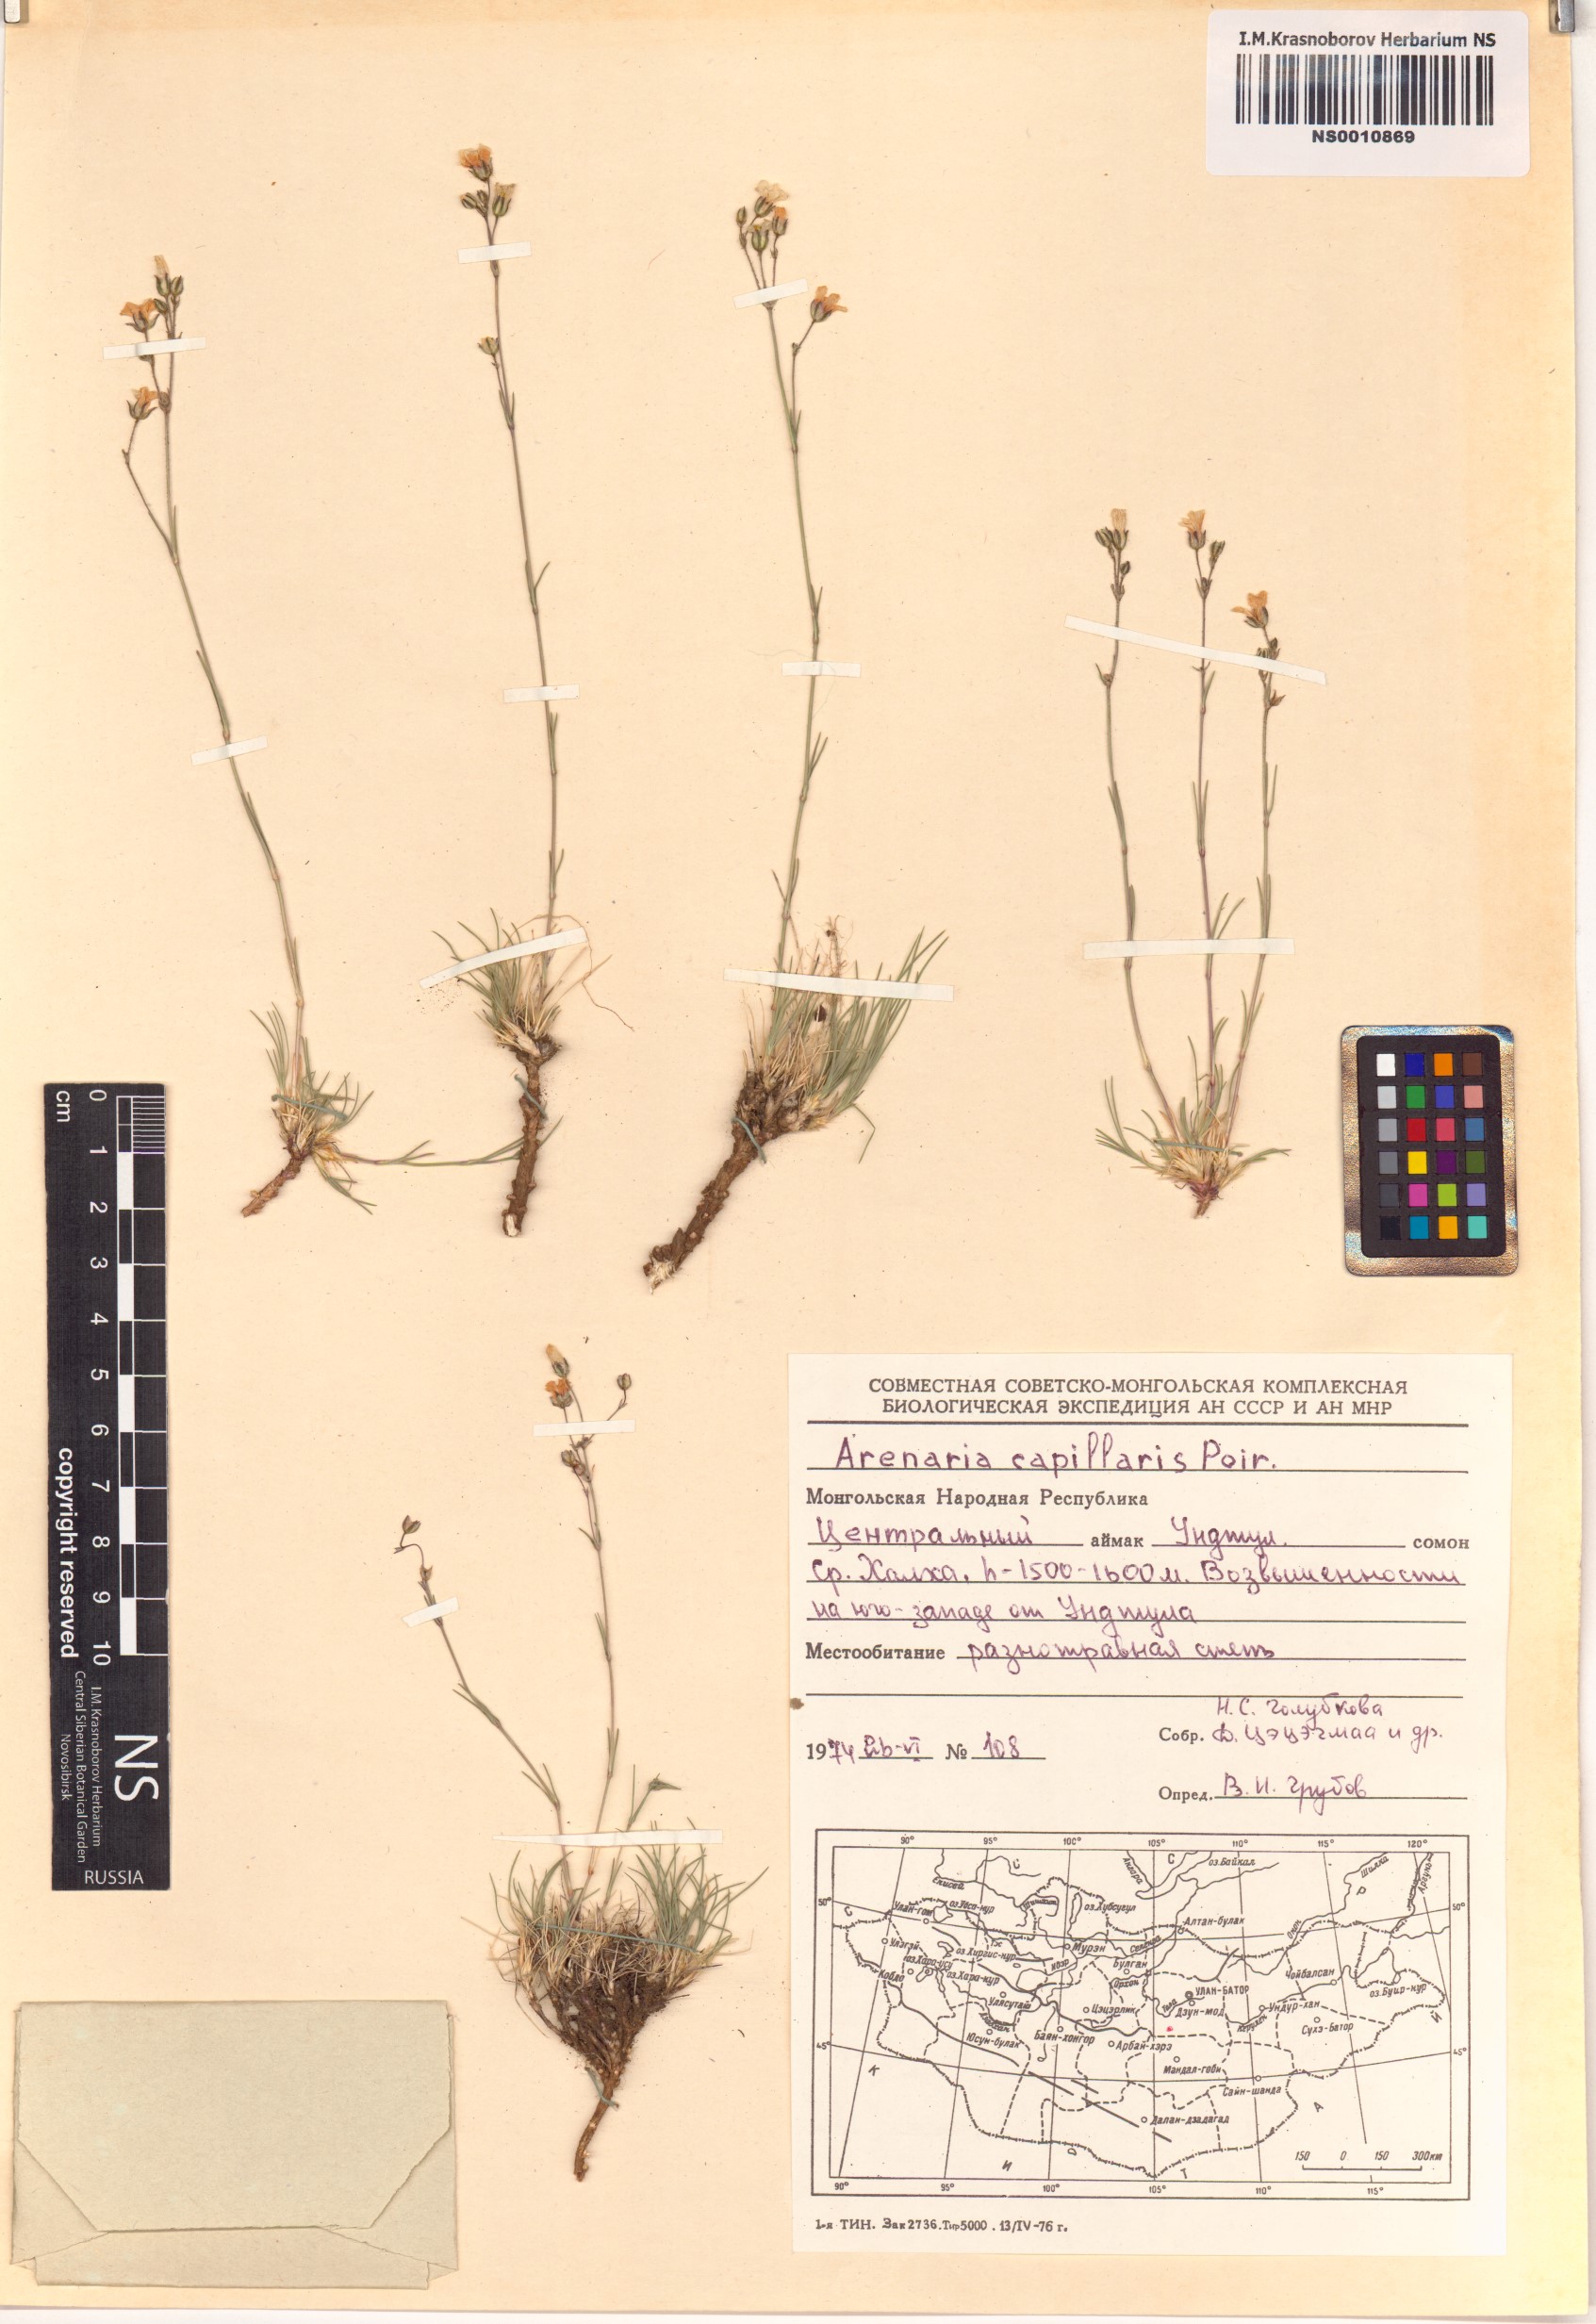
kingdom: Plantae
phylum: Tracheophyta
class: Magnoliopsida
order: Caryophyllales
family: Caryophyllaceae
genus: Eremogone
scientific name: Eremogone capillaris
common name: Slender mountain sandwort
